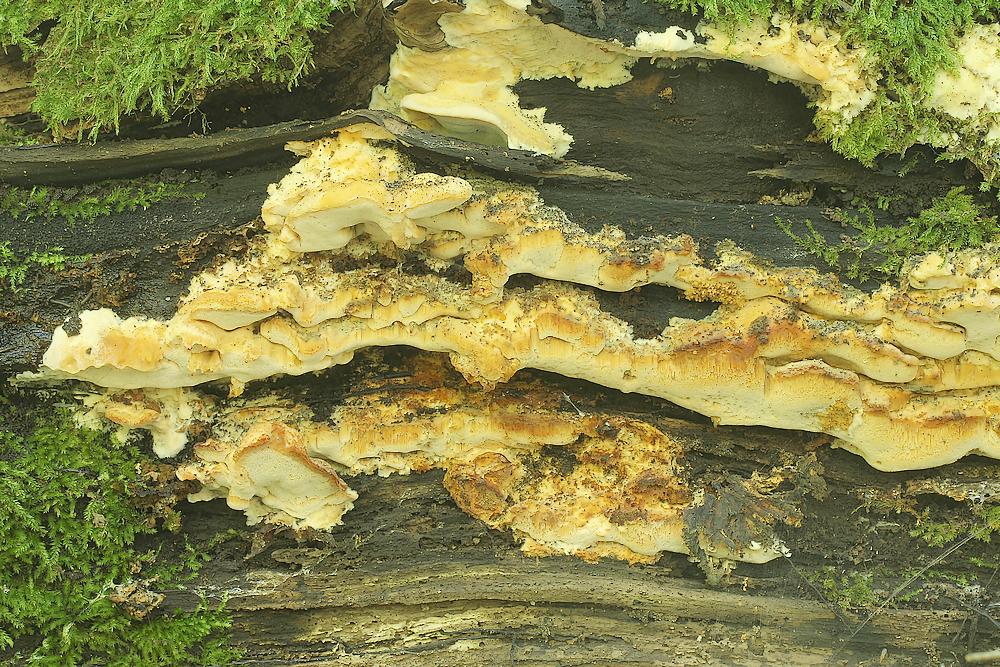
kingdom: Fungi
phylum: Basidiomycota
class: Agaricomycetes
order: Polyporales
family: Steccherinaceae
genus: Antrodiella
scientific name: Antrodiella mentschulensis
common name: abrikosporesvamp
